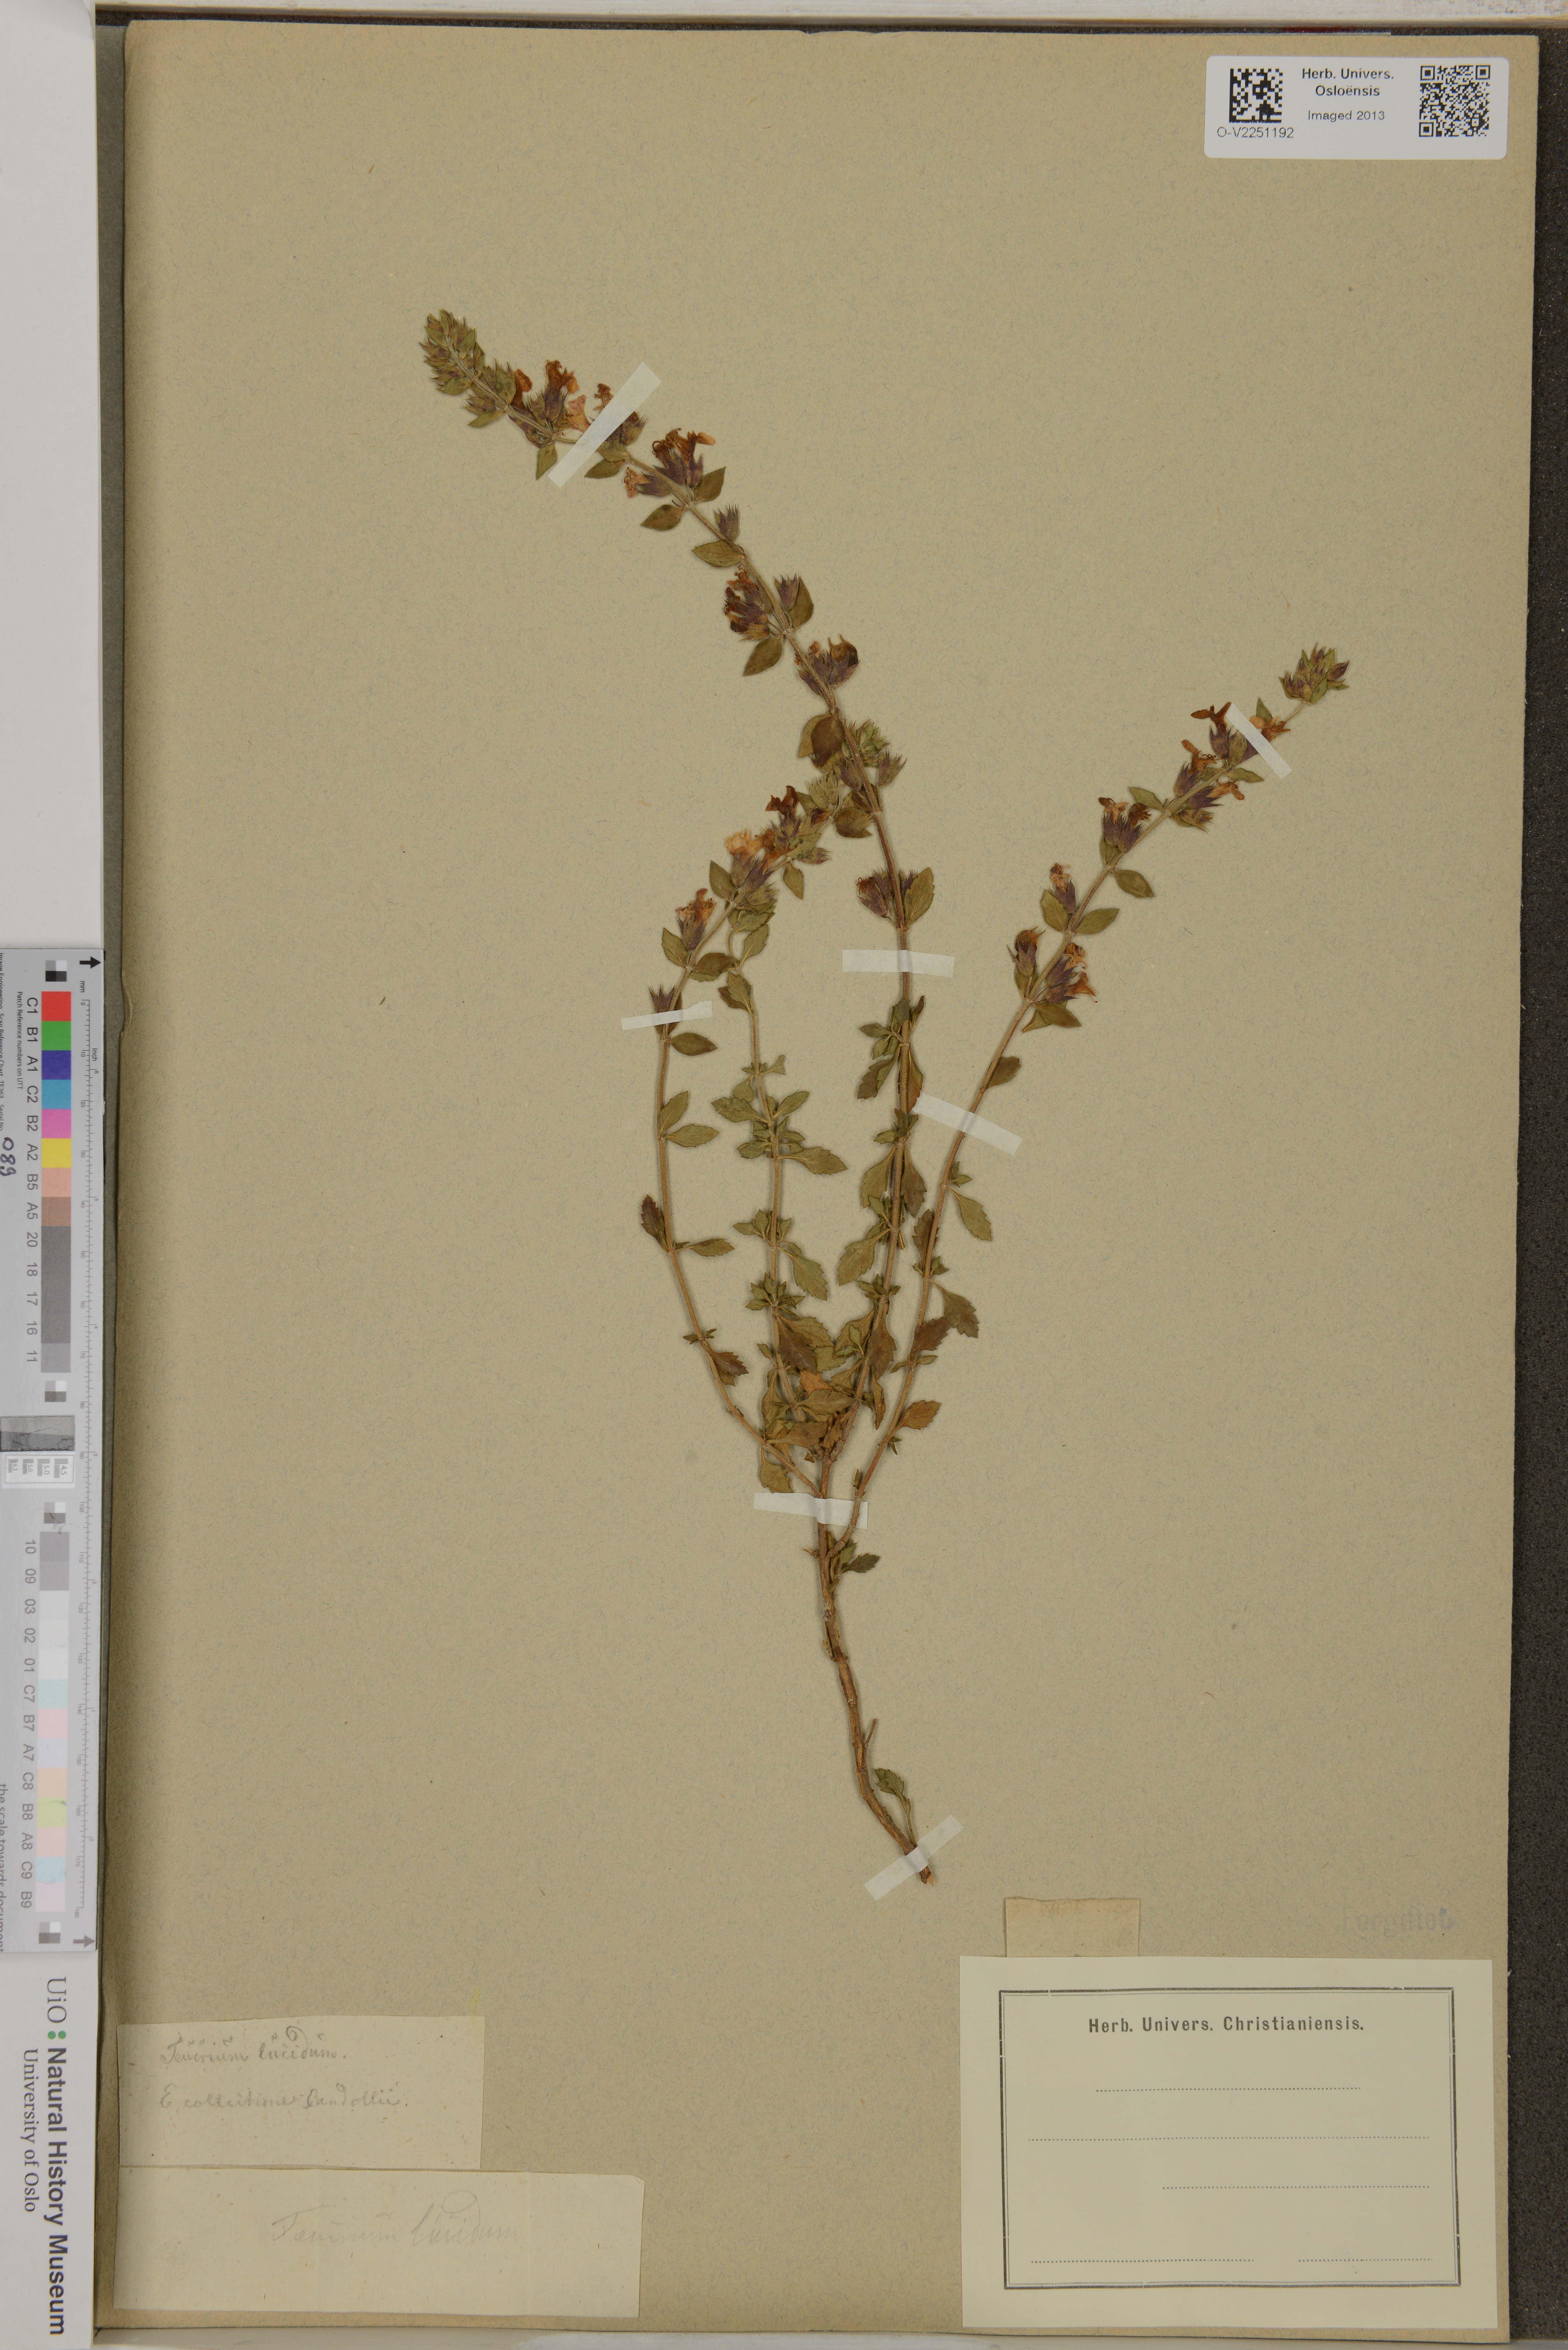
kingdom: Plantae
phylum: Tracheophyta
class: Magnoliopsida
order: Lamiales
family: Lamiaceae
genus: Teucrium
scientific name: Teucrium lucidum
